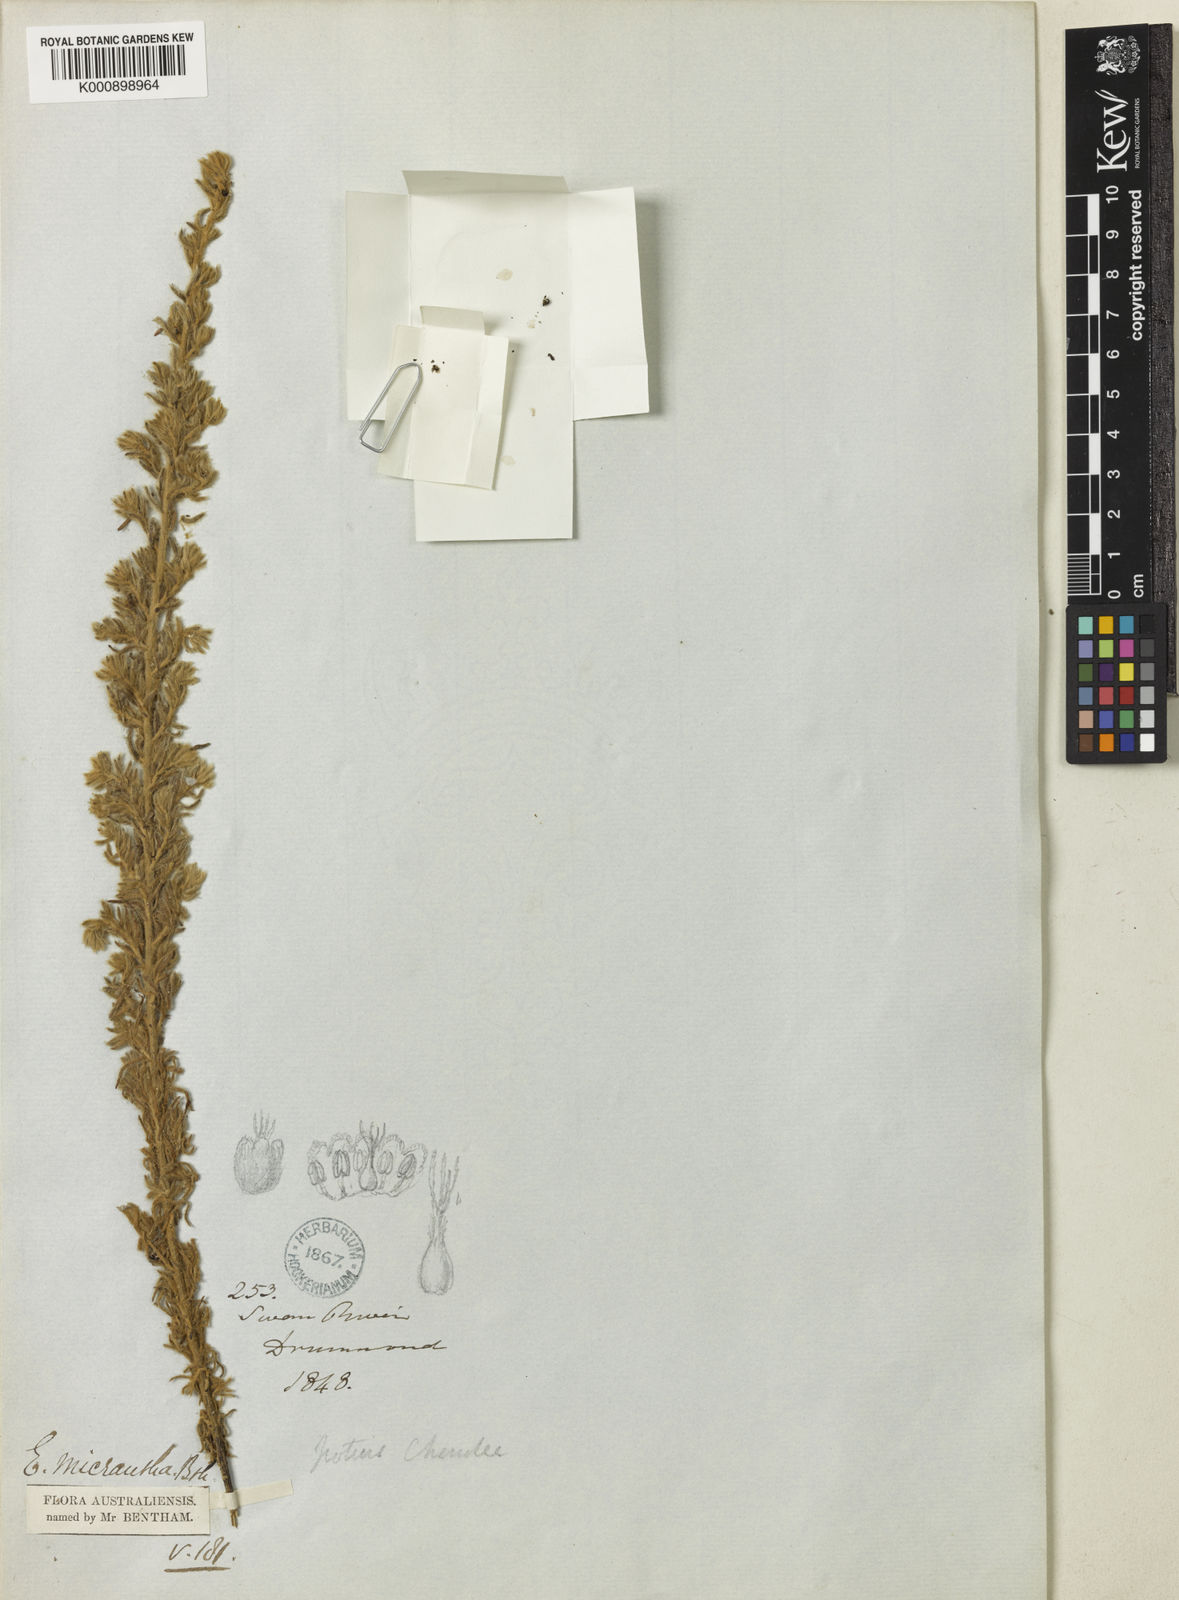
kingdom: Plantae
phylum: Tracheophyta
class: Magnoliopsida
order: Caryophyllales
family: Amaranthaceae
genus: Maireana
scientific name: Maireana
